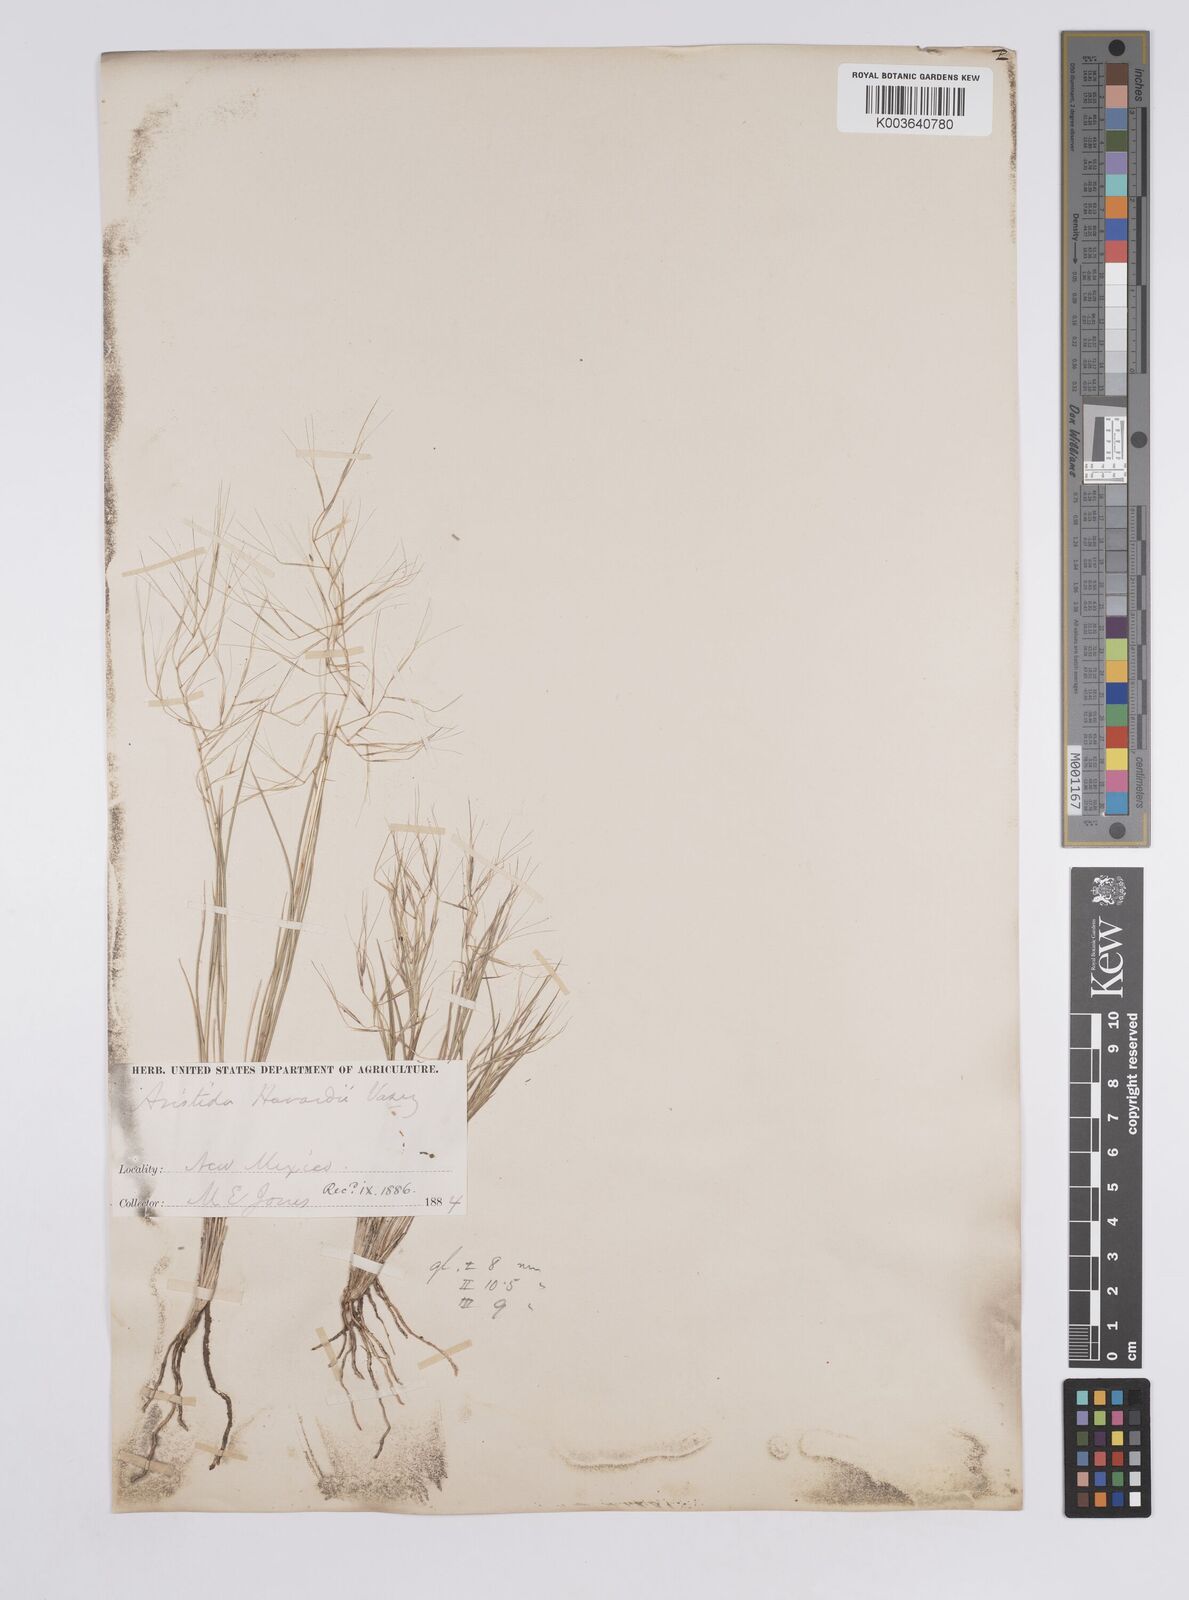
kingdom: Plantae
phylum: Tracheophyta
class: Liliopsida
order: Poales
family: Poaceae
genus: Aristida
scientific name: Aristida havardii
